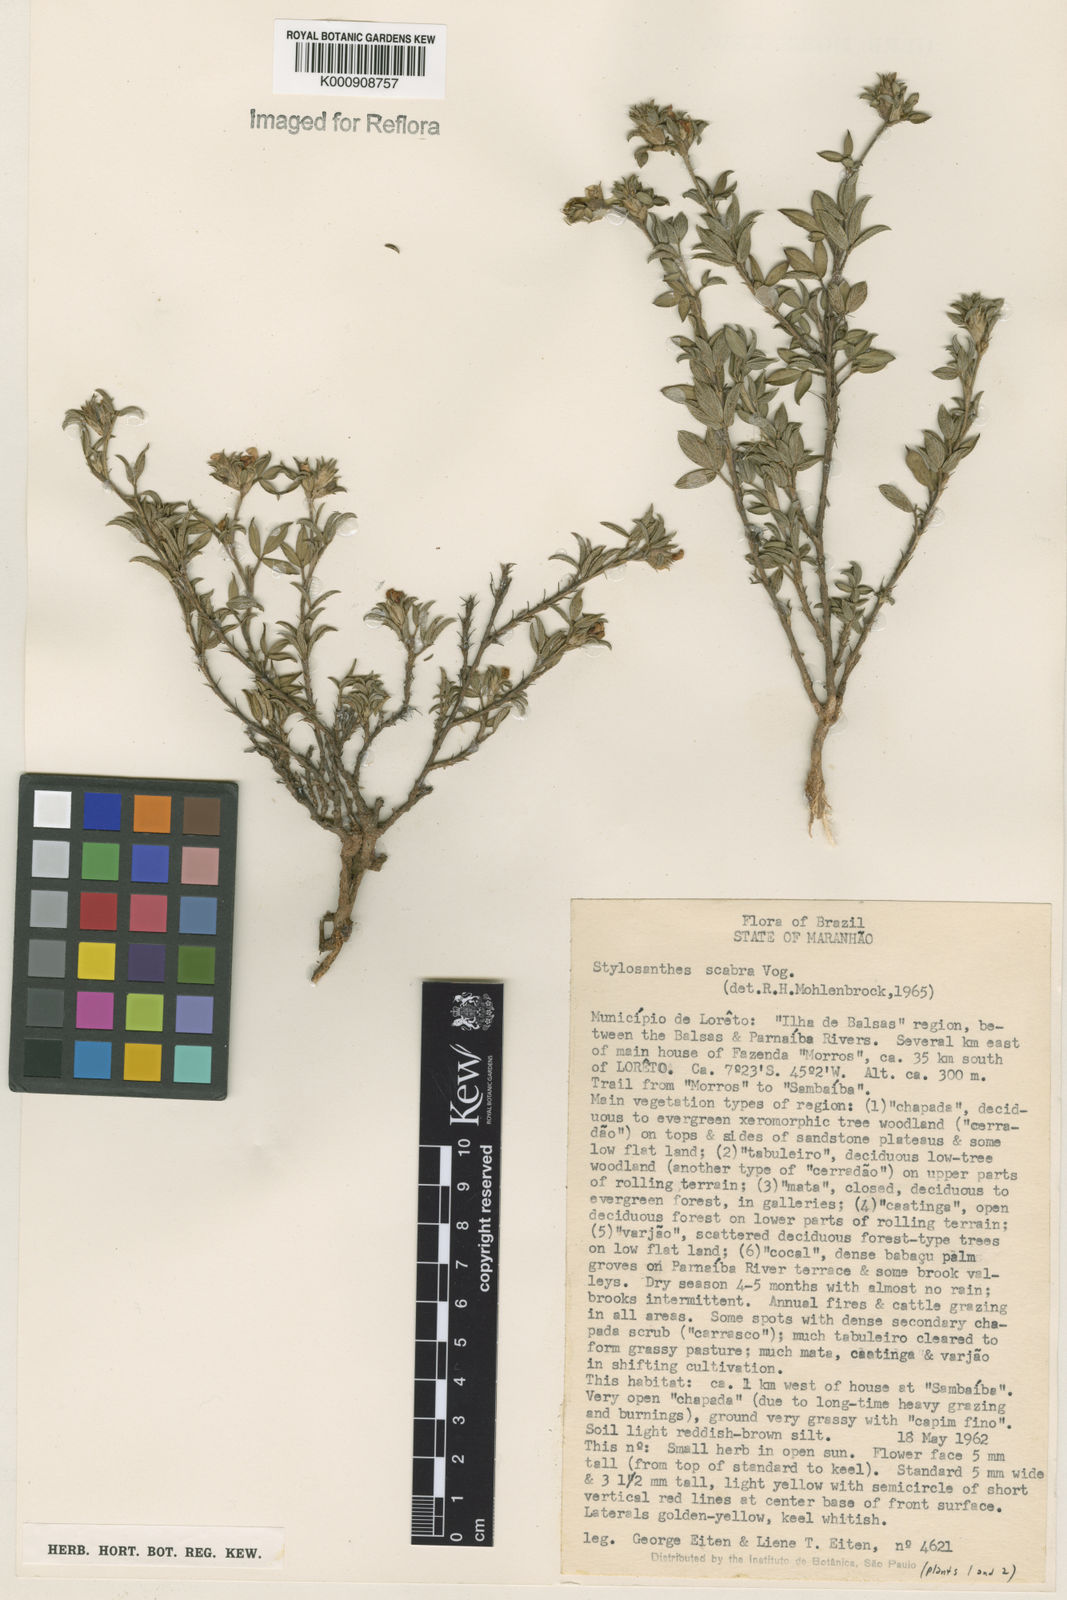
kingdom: Plantae
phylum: Tracheophyta
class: Magnoliopsida
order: Fabales
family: Fabaceae
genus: Stylosanthes
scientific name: Stylosanthes scabra
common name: Pencilflower
